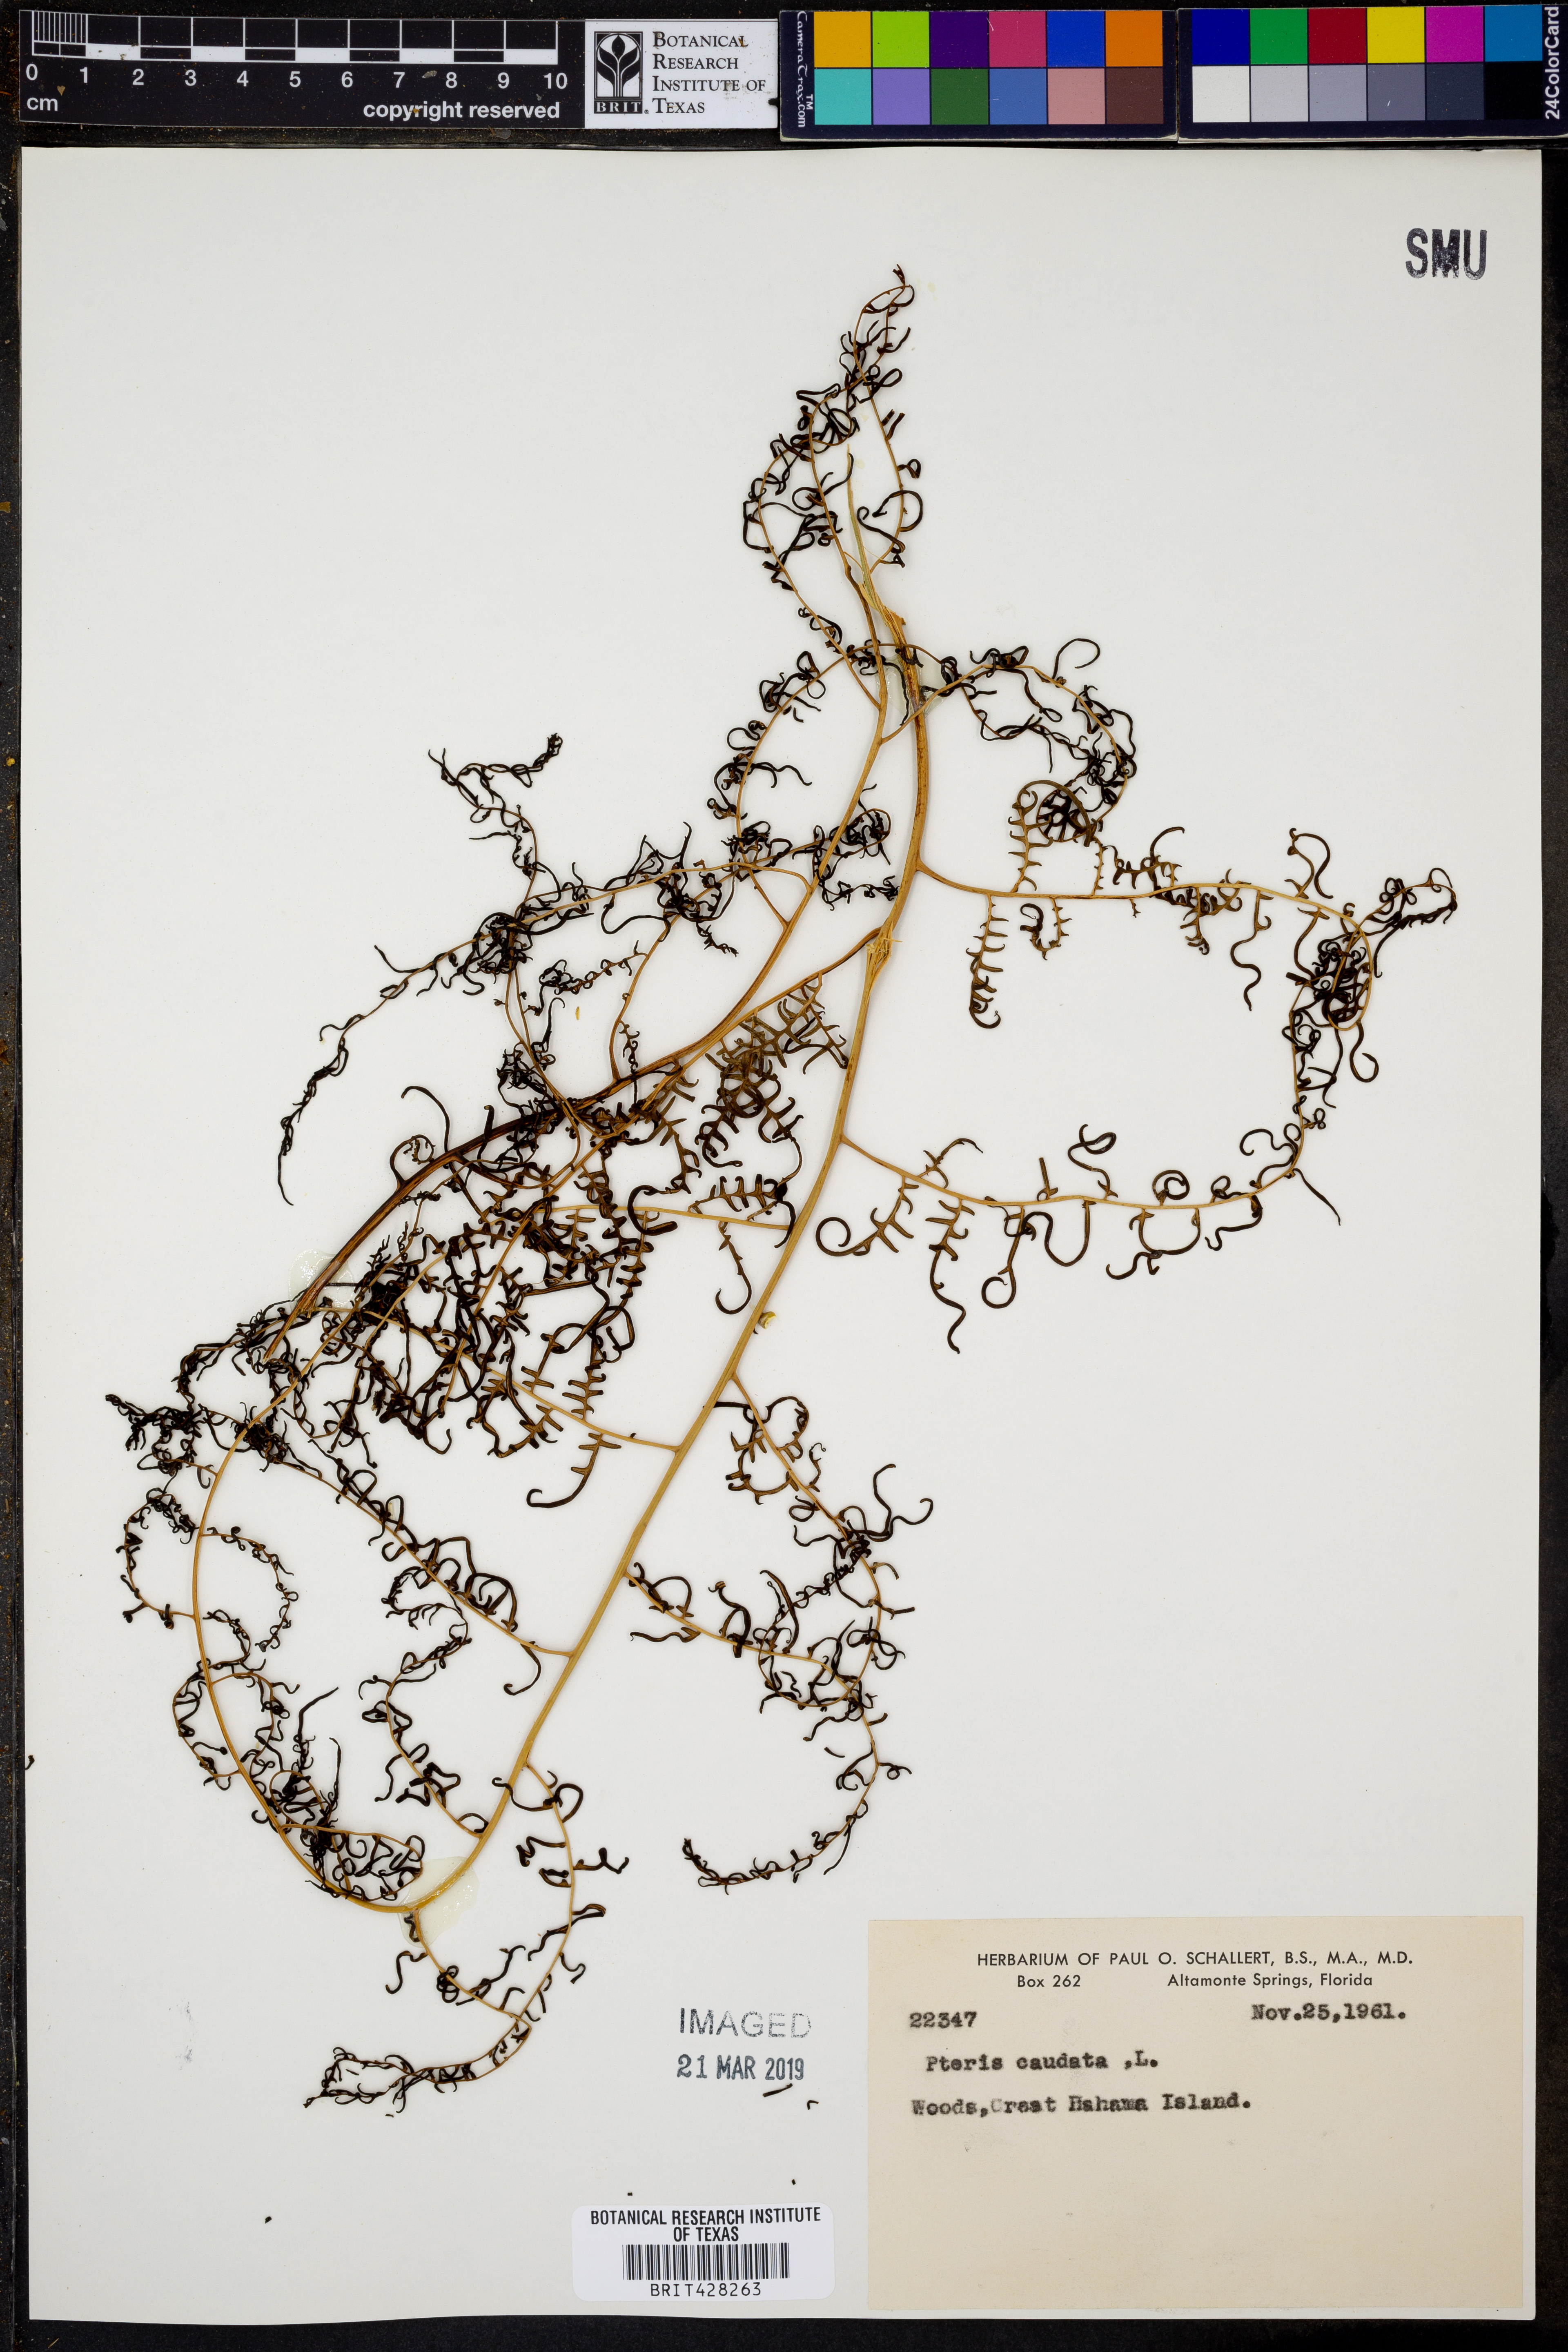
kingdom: Plantae
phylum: Tracheophyta
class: Polypodiopsida
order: Polypodiales
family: Pteridaceae
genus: Pteris
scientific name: Pteris
